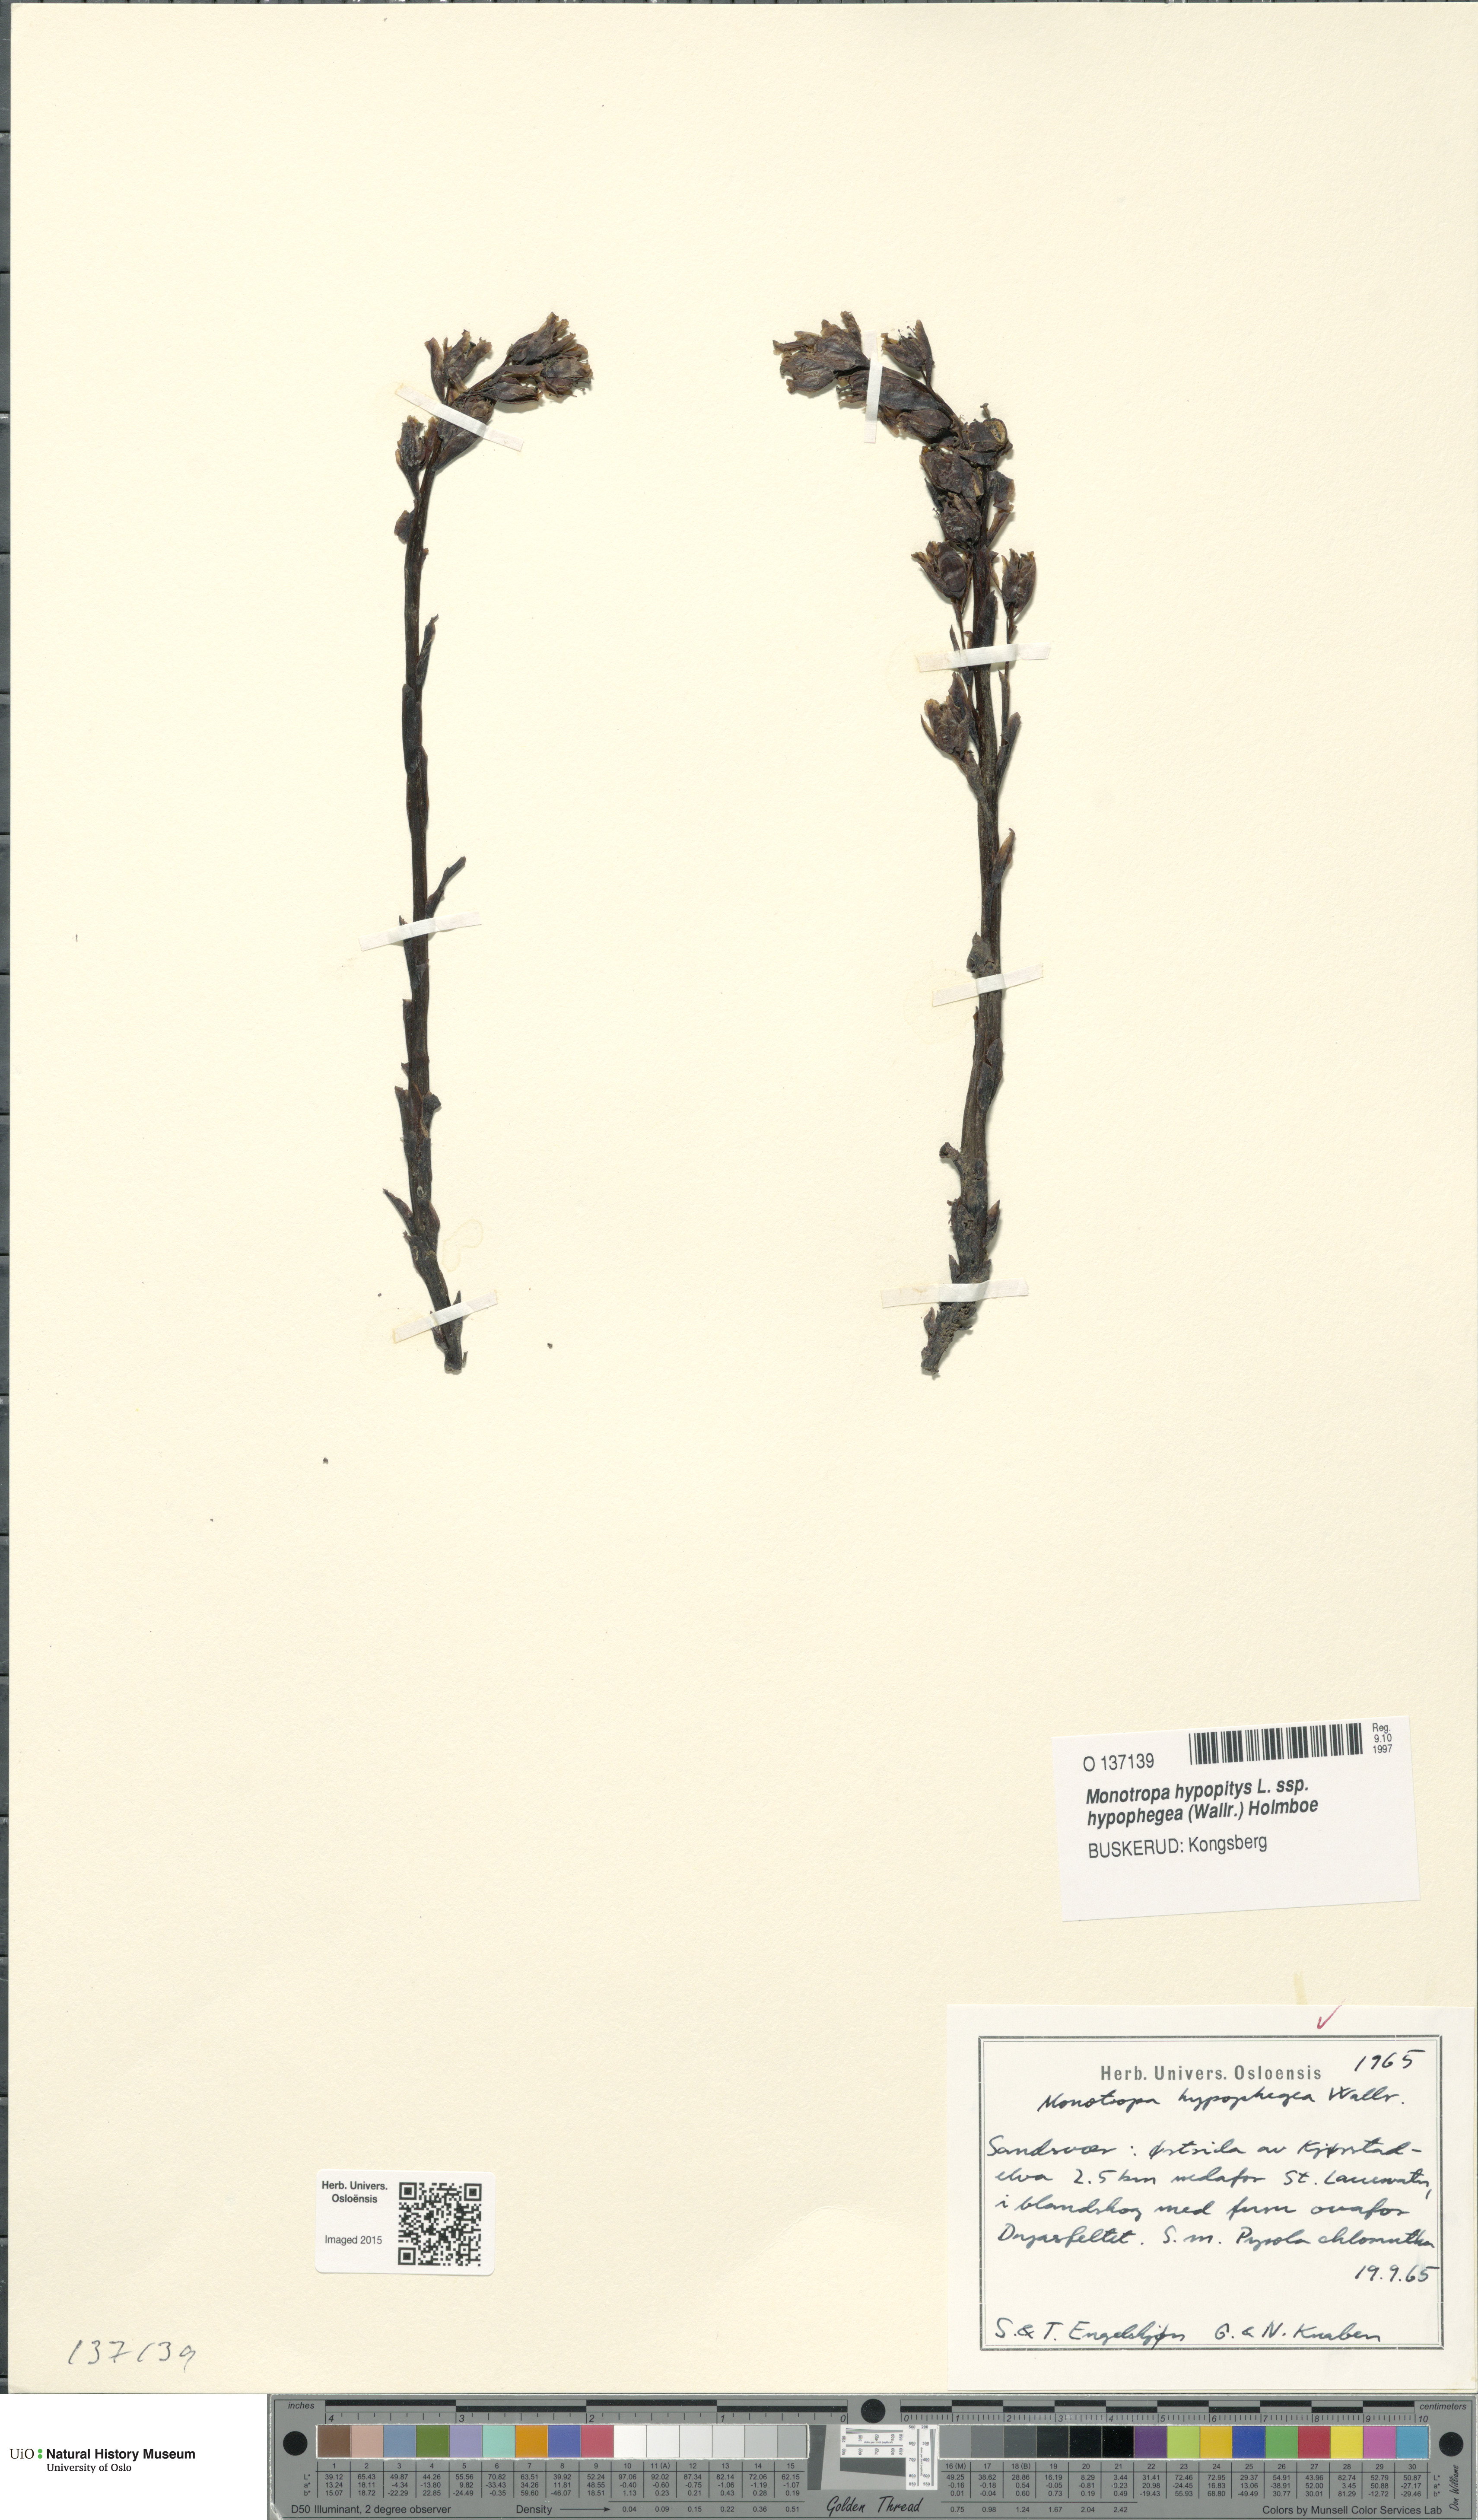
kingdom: Plantae
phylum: Tracheophyta
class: Magnoliopsida
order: Ericales
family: Ericaceae
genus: Hypopitys
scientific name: Hypopitys hypophegea
